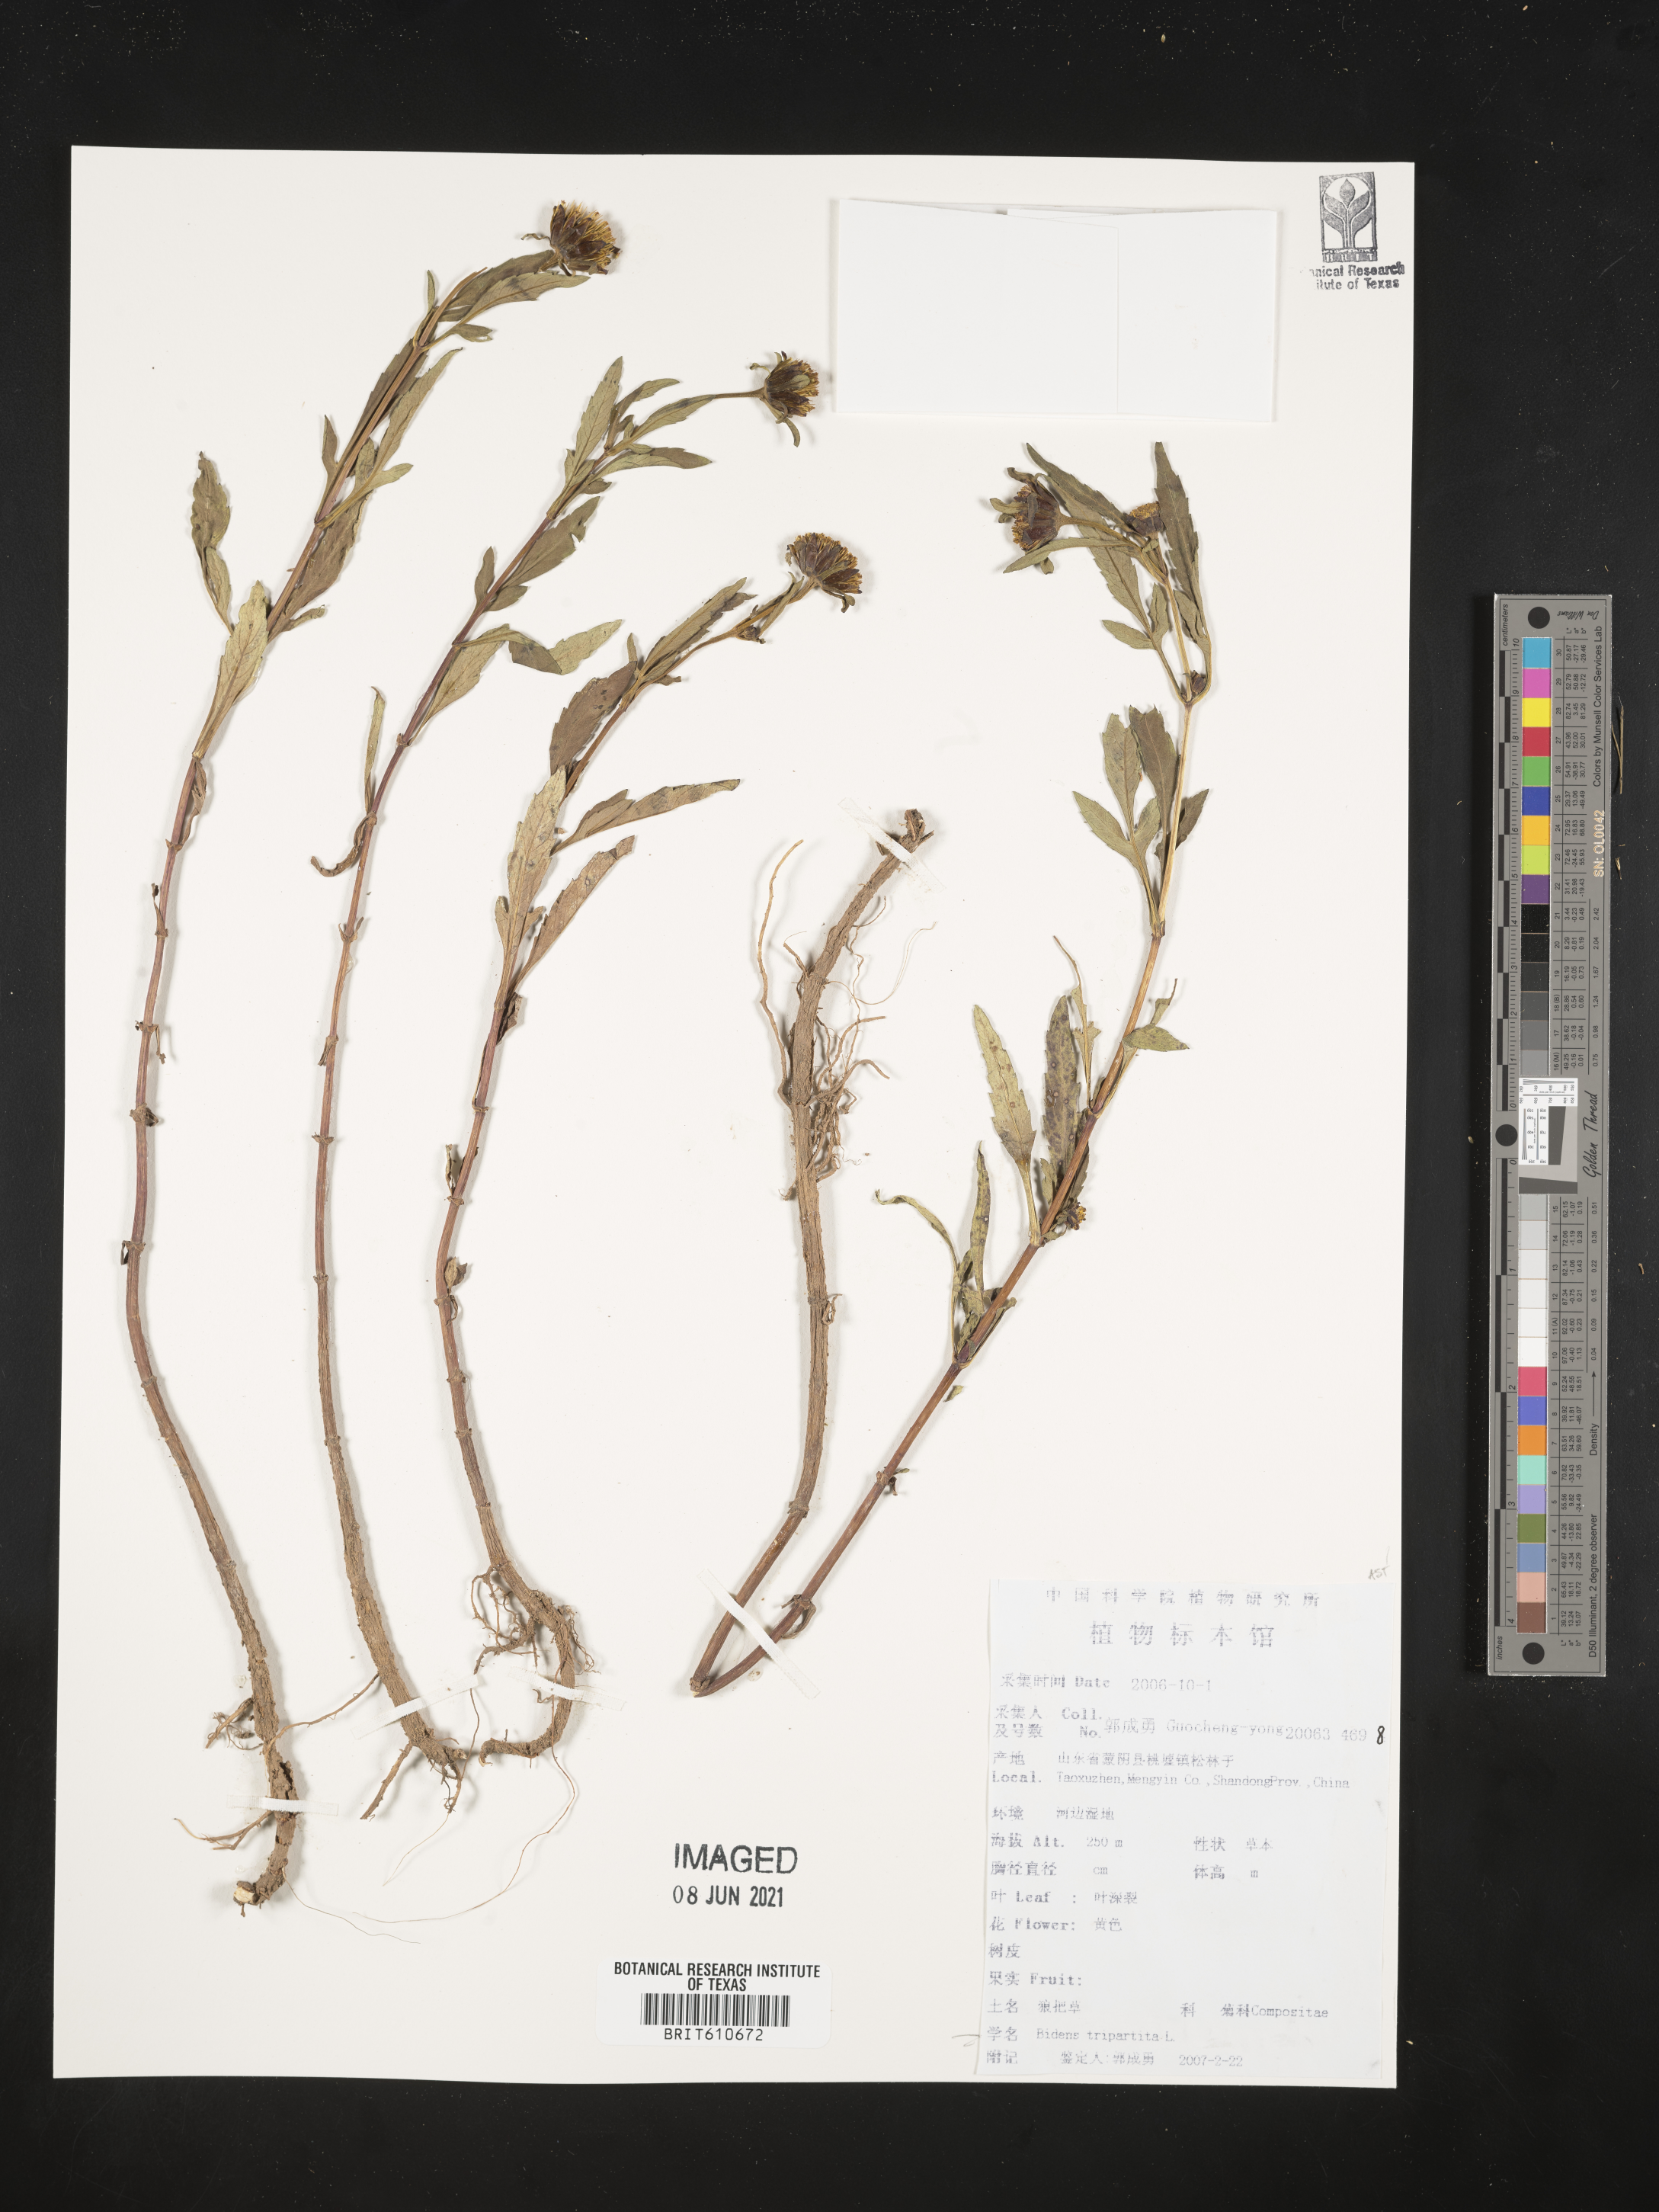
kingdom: Plantae
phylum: Tracheophyta
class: Magnoliopsida
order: Asterales
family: Asteraceae
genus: Bidens
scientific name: Bidens tripartita
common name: Trifid bur-marigold
